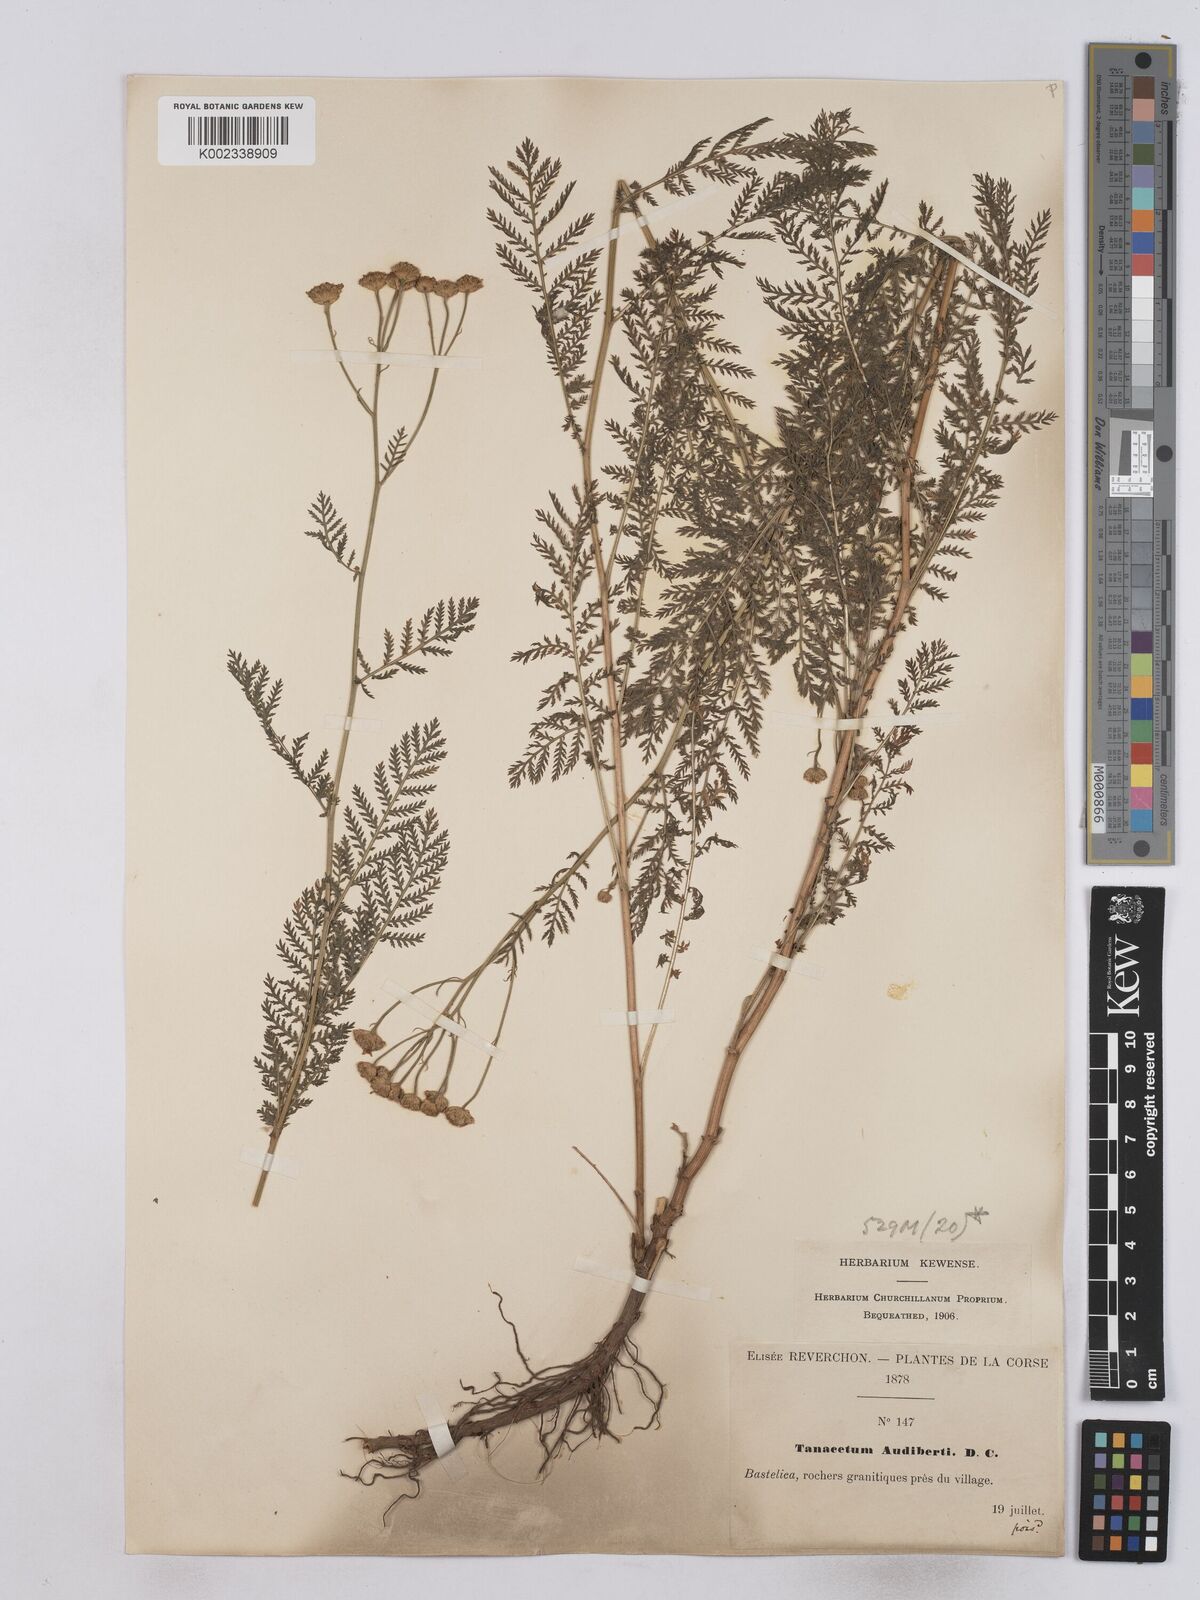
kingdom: Plantae
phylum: Tracheophyta
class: Magnoliopsida
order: Asterales
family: Asteraceae
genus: Tanacetum
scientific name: Tanacetum audibertii
